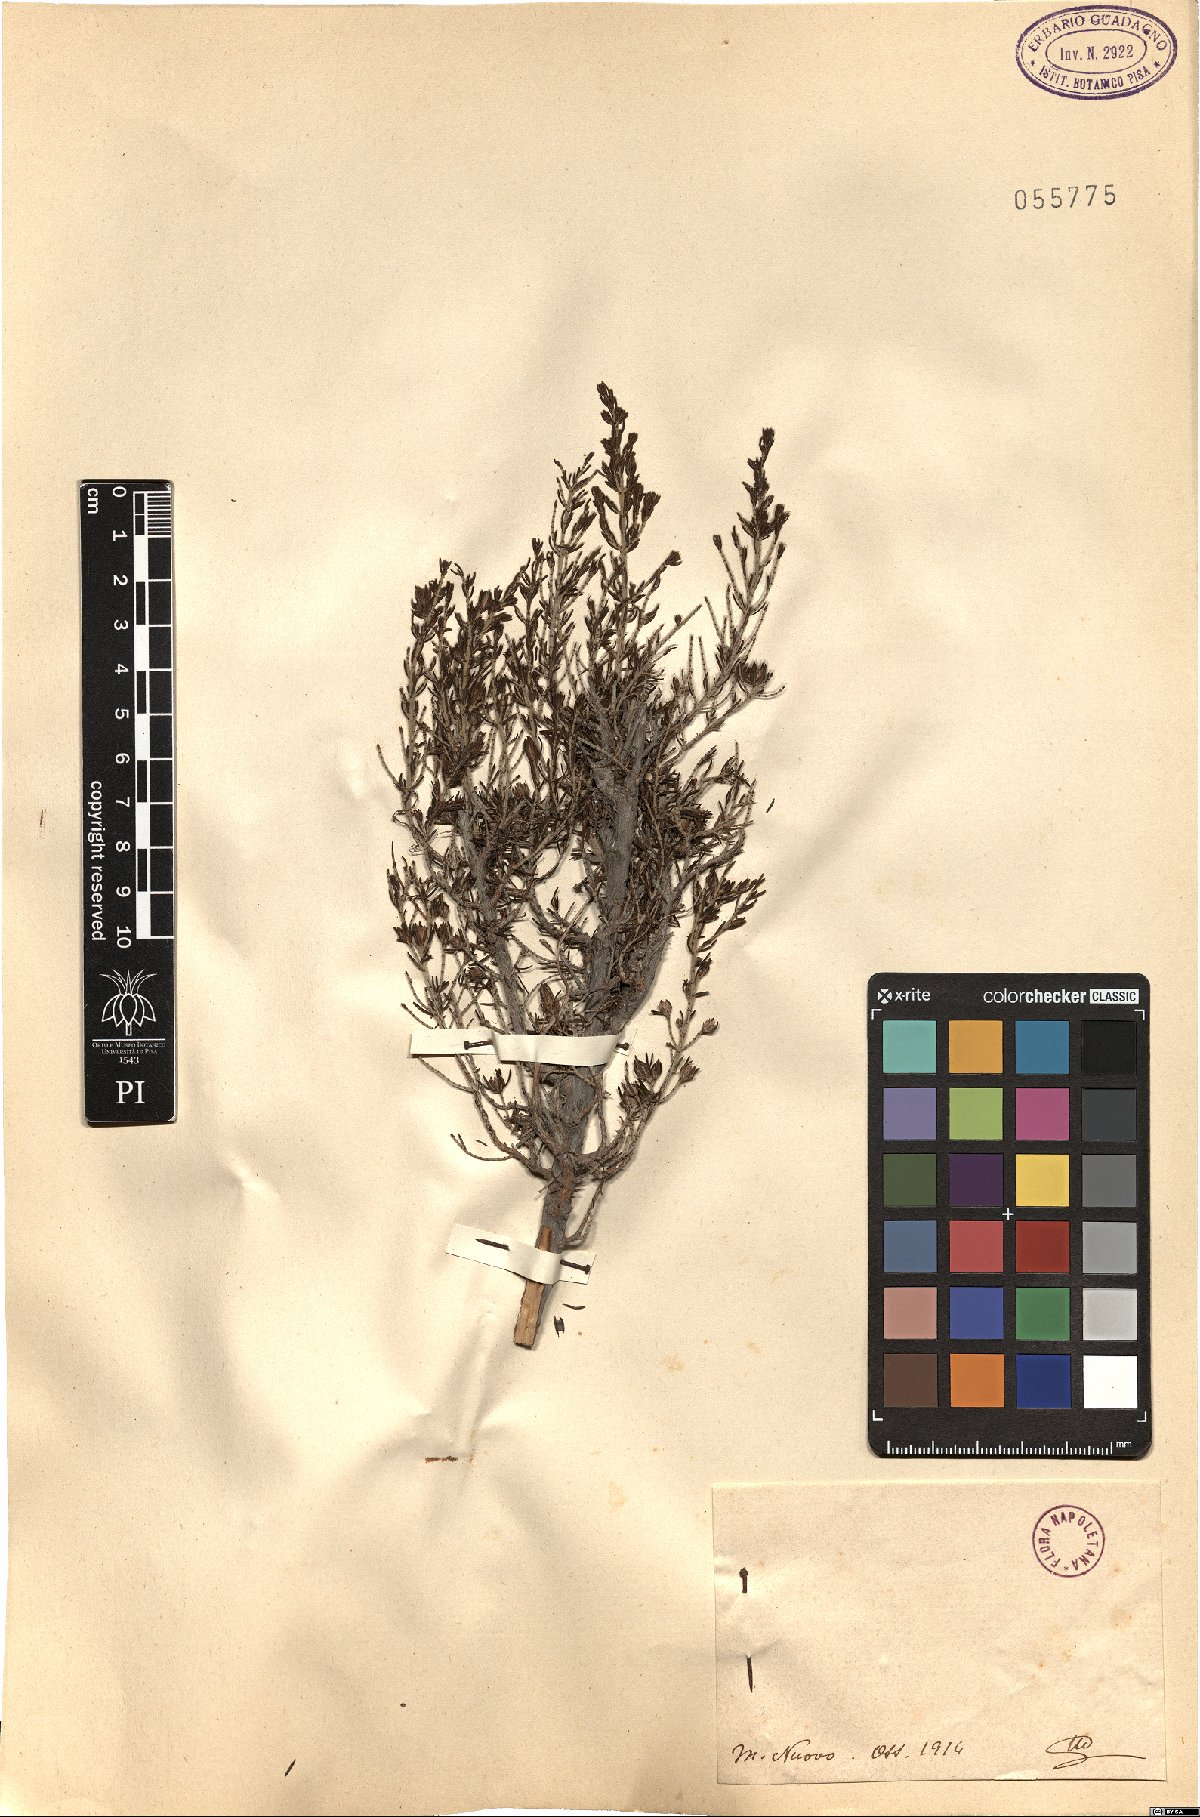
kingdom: Plantae
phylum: Tracheophyta
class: Magnoliopsida
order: Ericales
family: Ericaceae
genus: Erica
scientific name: Erica
